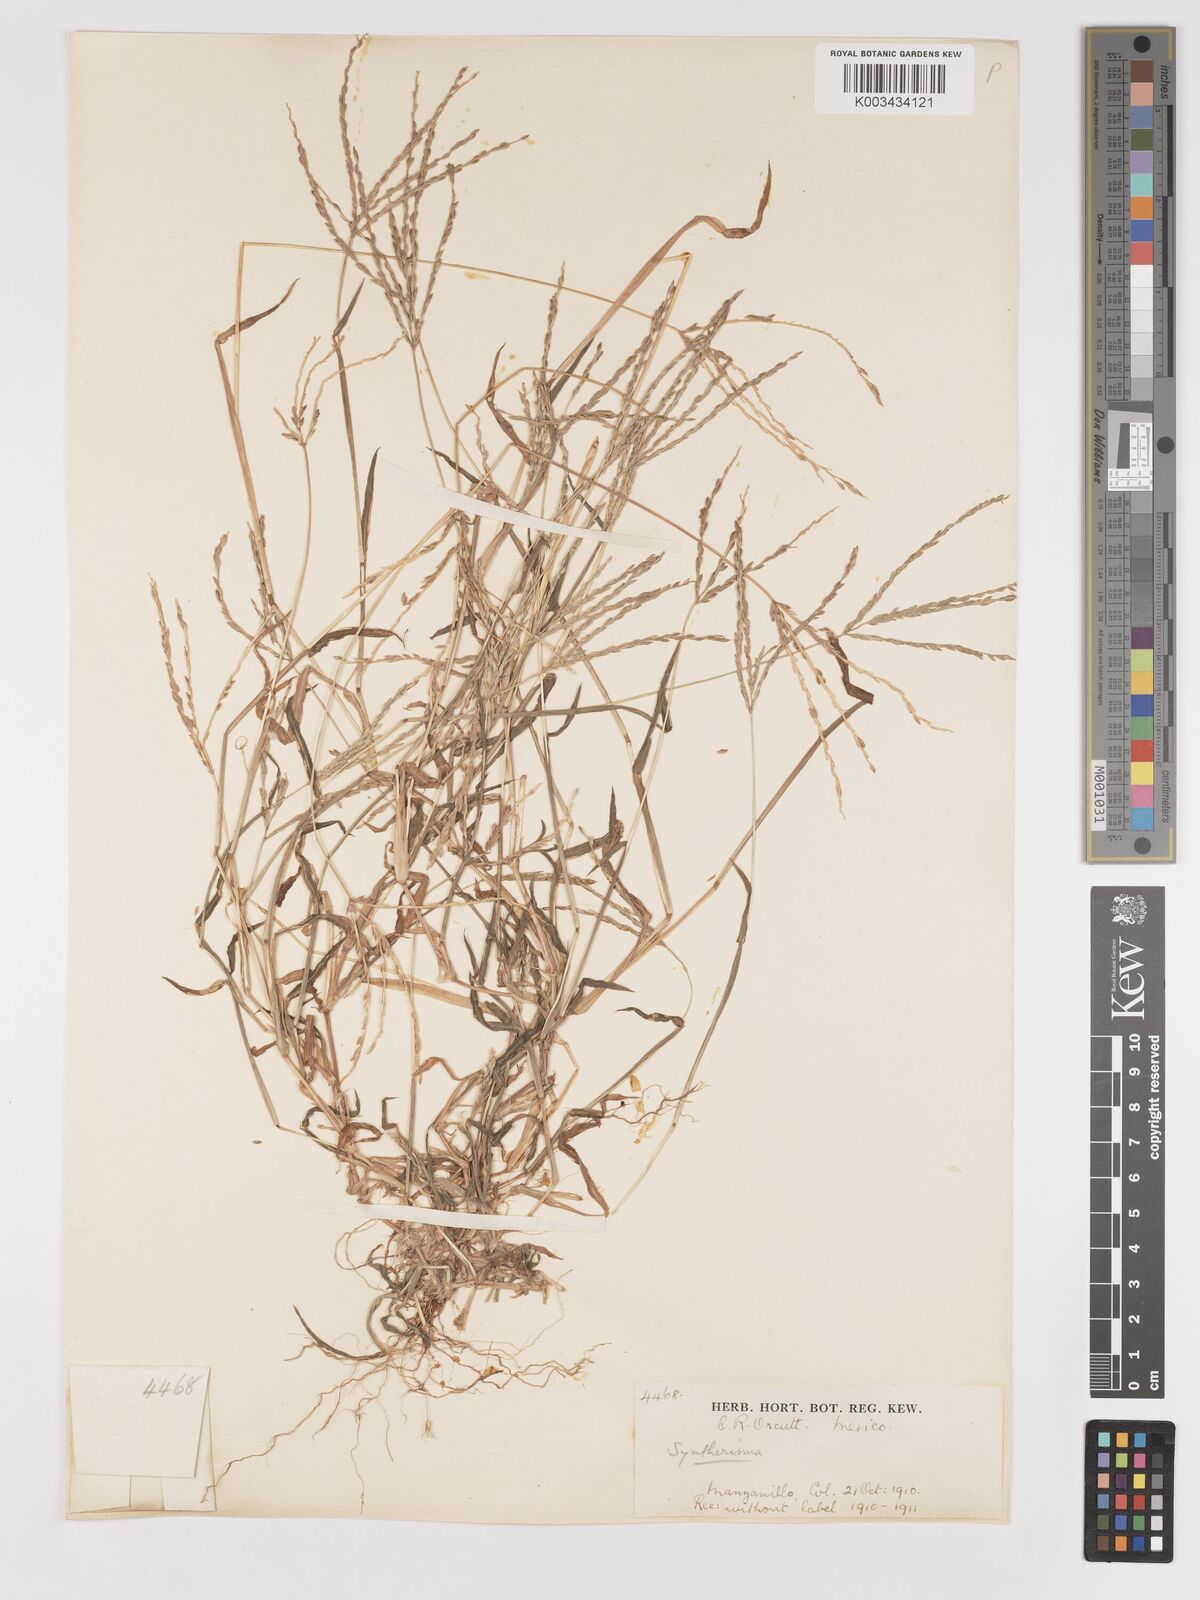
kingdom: Plantae
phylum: Tracheophyta
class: Liliopsida
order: Poales
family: Poaceae
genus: Digitaria
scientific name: Digitaria ciliaris
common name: Tropical finger-grass
